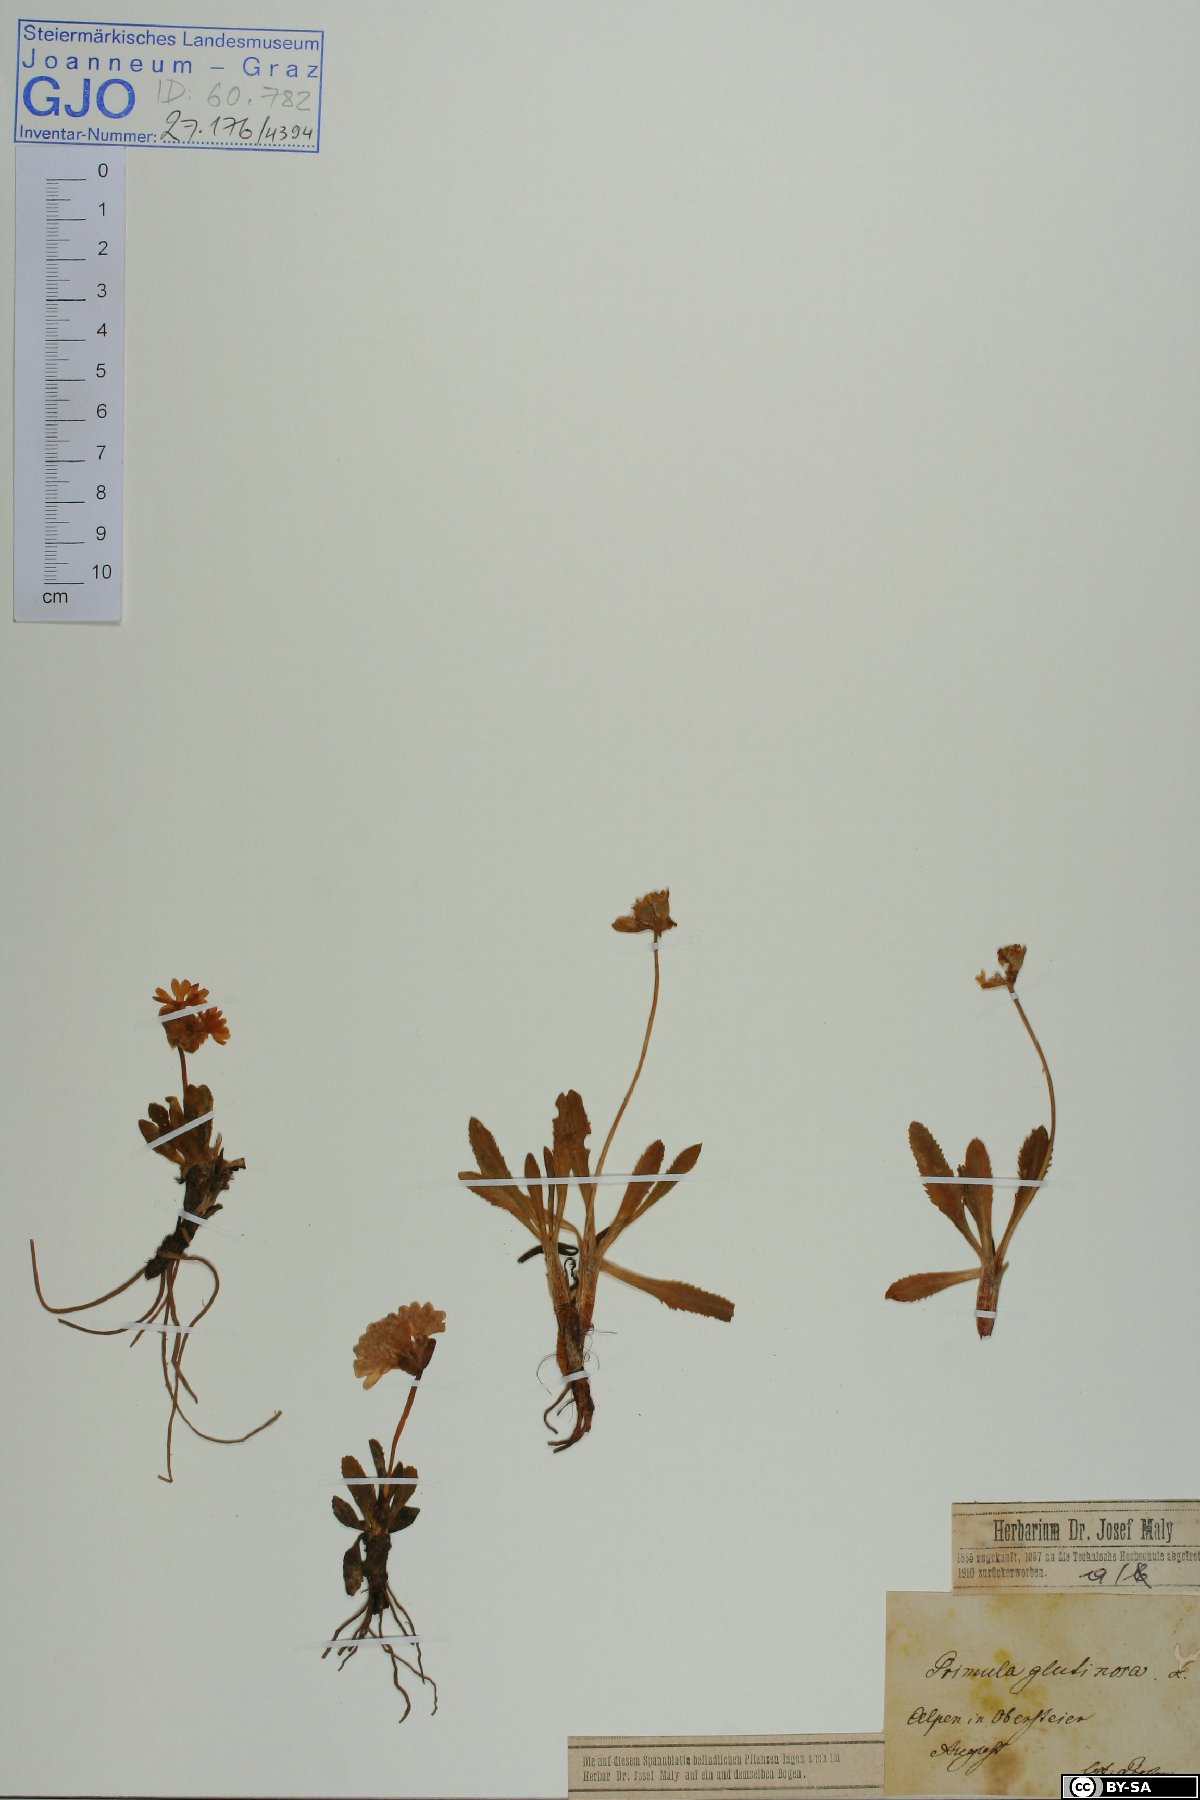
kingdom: Plantae
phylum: Tracheophyta
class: Magnoliopsida
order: Ericales
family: Primulaceae
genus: Primula
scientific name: Primula glutinosa
